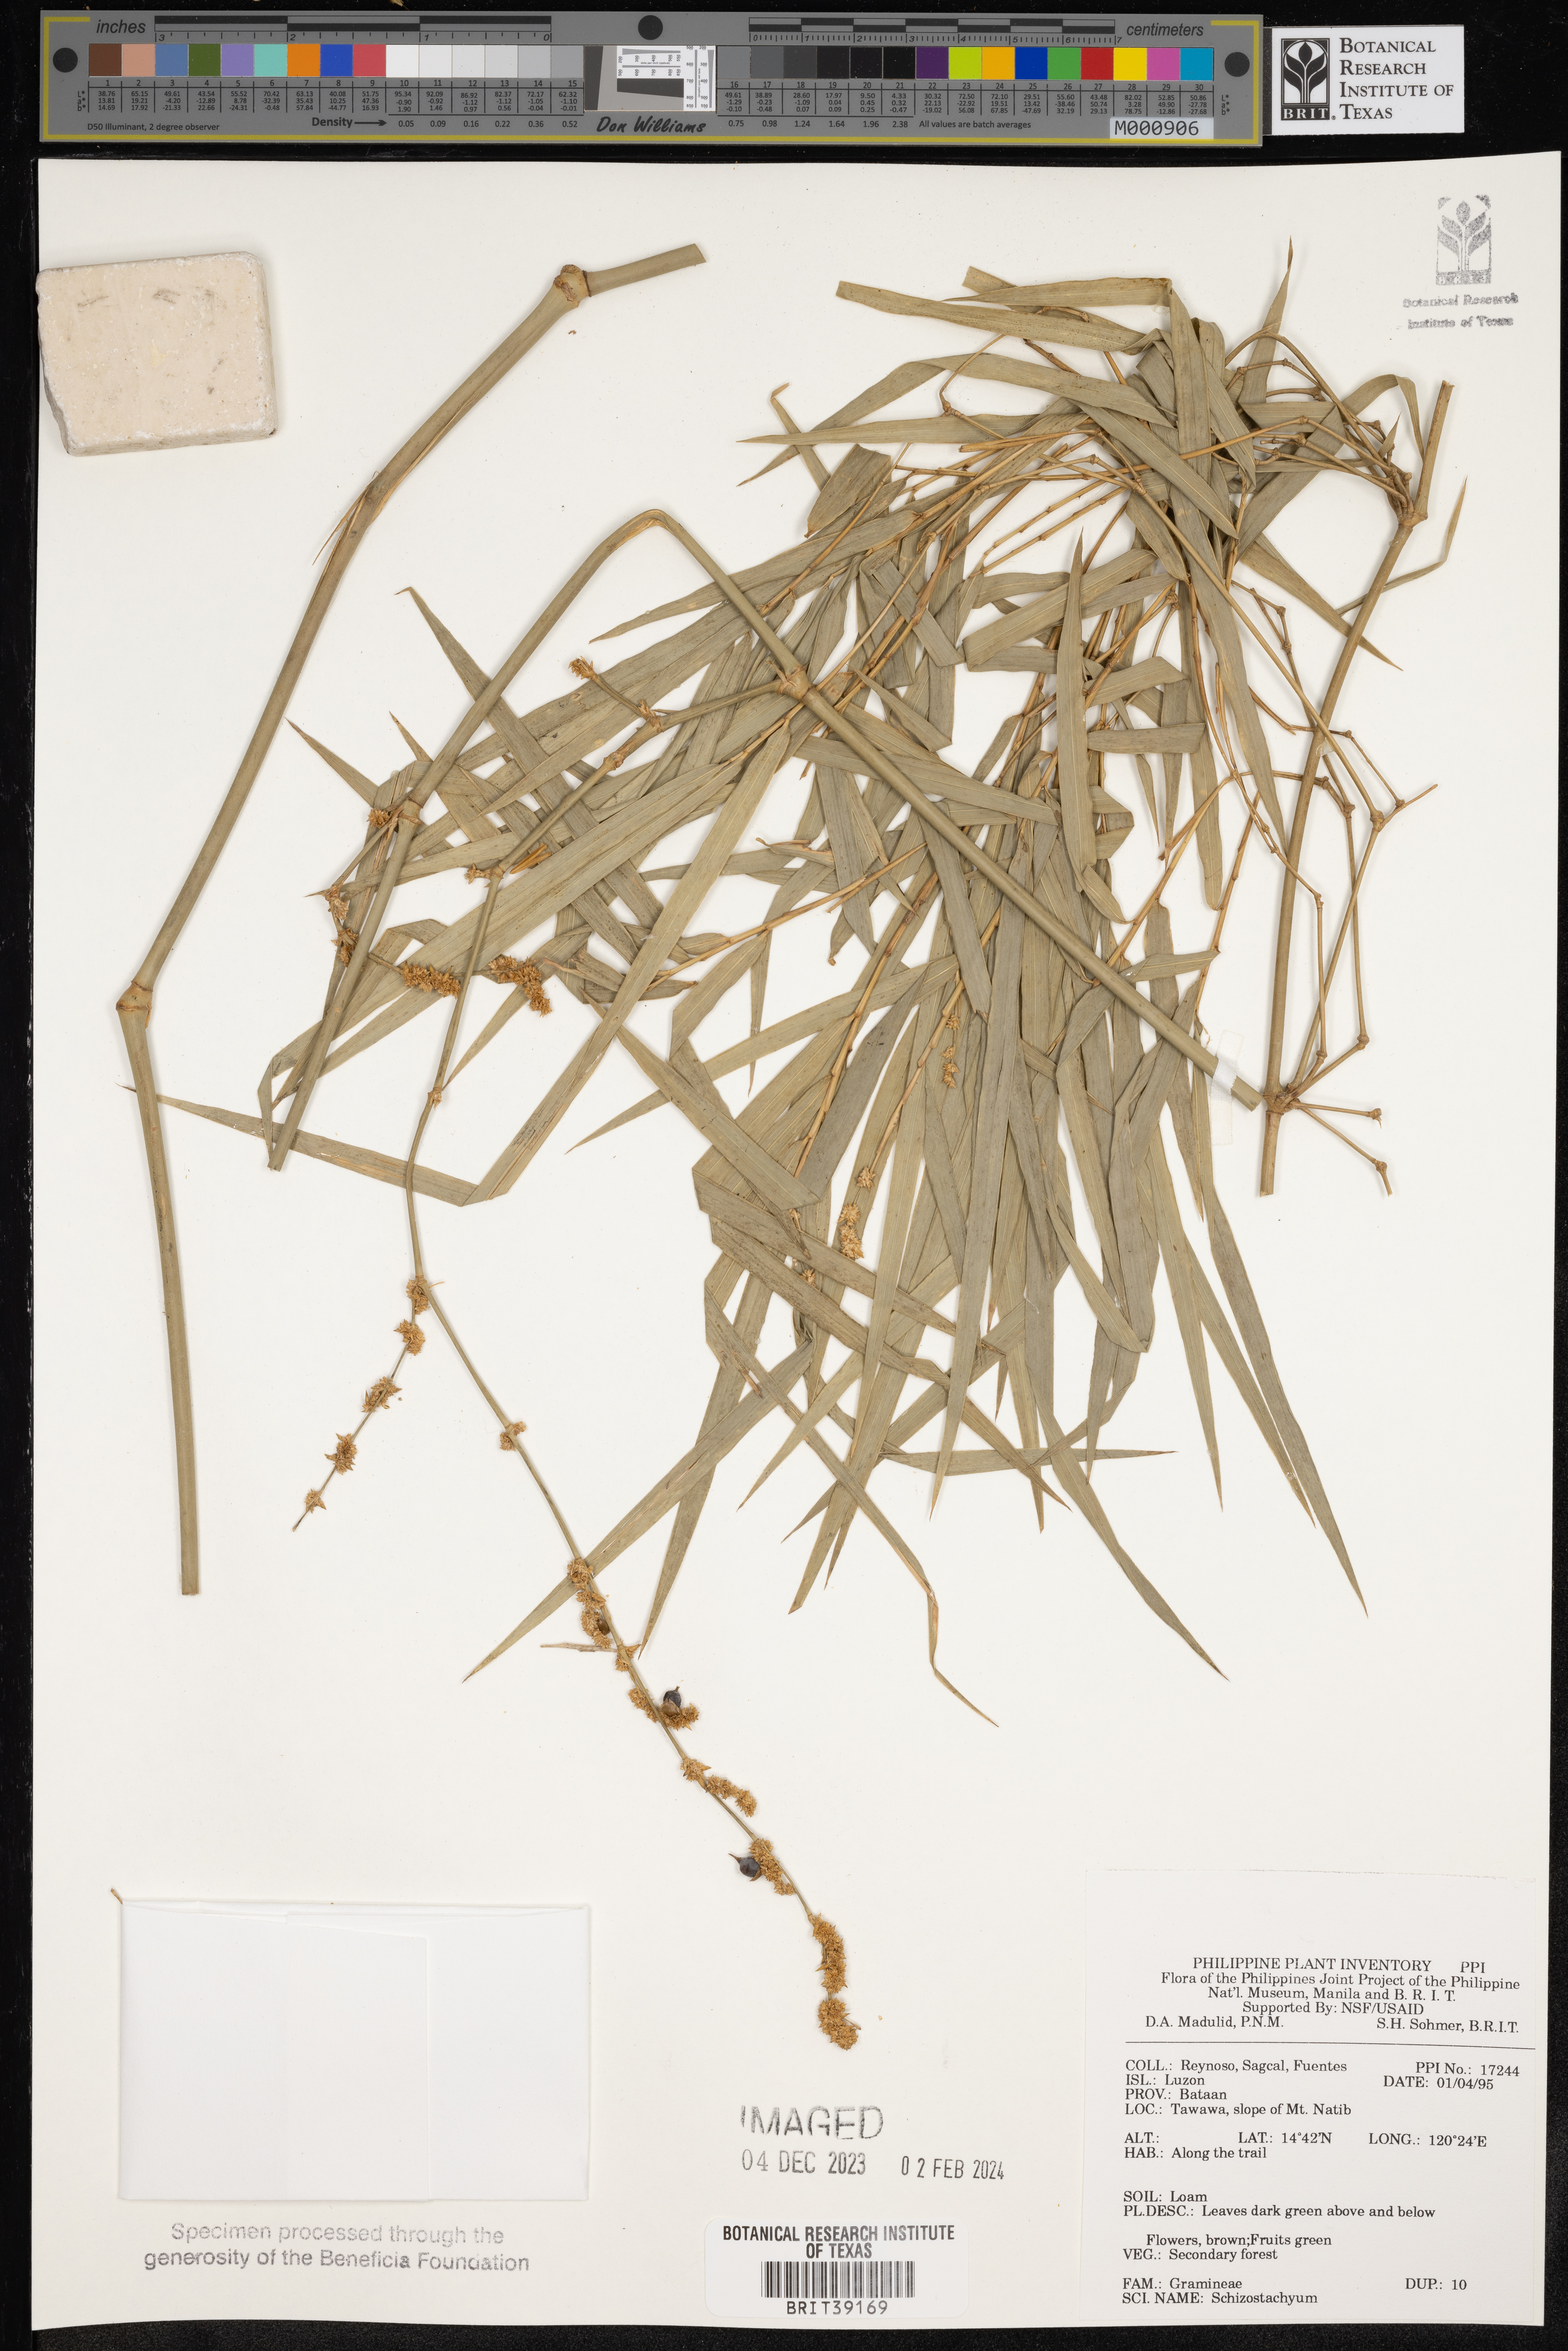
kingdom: Plantae
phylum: Tracheophyta
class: Liliopsida
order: Poales
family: Poaceae
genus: Schizostachyum
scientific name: Schizostachyum
